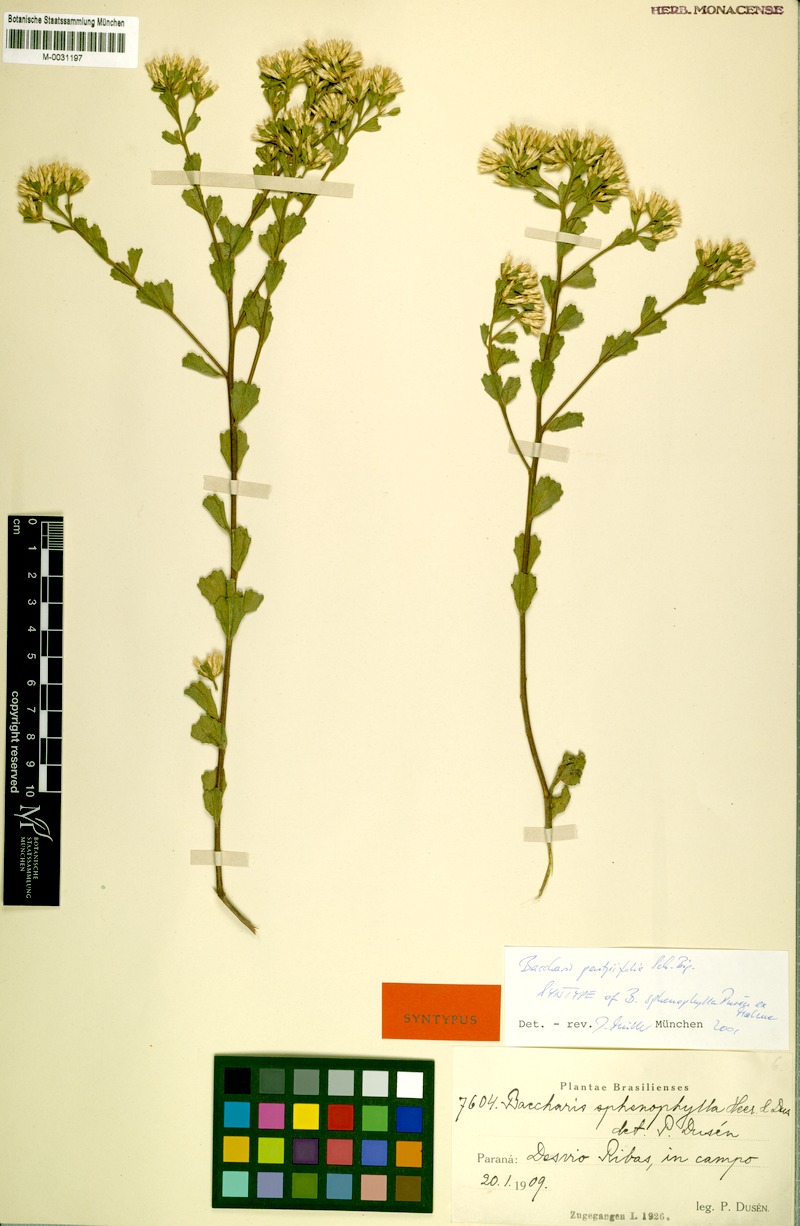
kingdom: Plantae
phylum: Tracheophyta
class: Magnoliopsida
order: Asterales
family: Asteraceae
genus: Baccharis
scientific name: Baccharis pentziifolia
